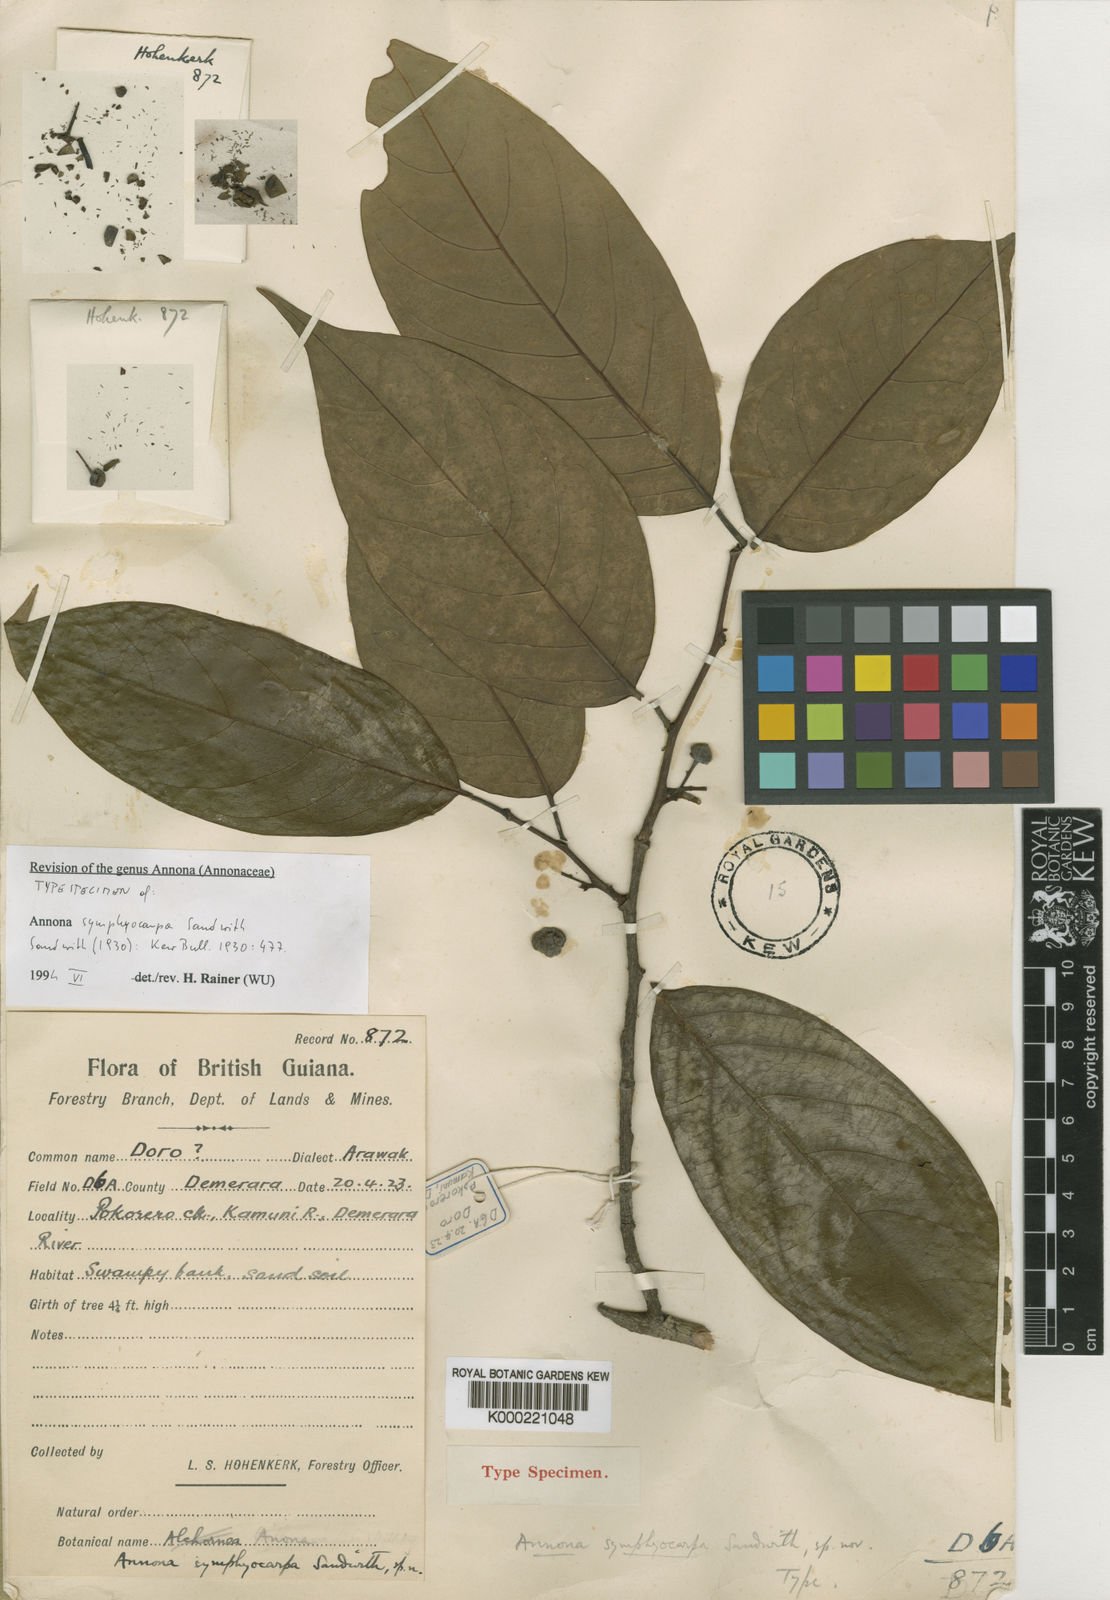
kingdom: Plantae
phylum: Tracheophyta
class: Magnoliopsida
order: Magnoliales
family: Annonaceae
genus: Annona
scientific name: Annona symphyocarpa
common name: Custard apple
